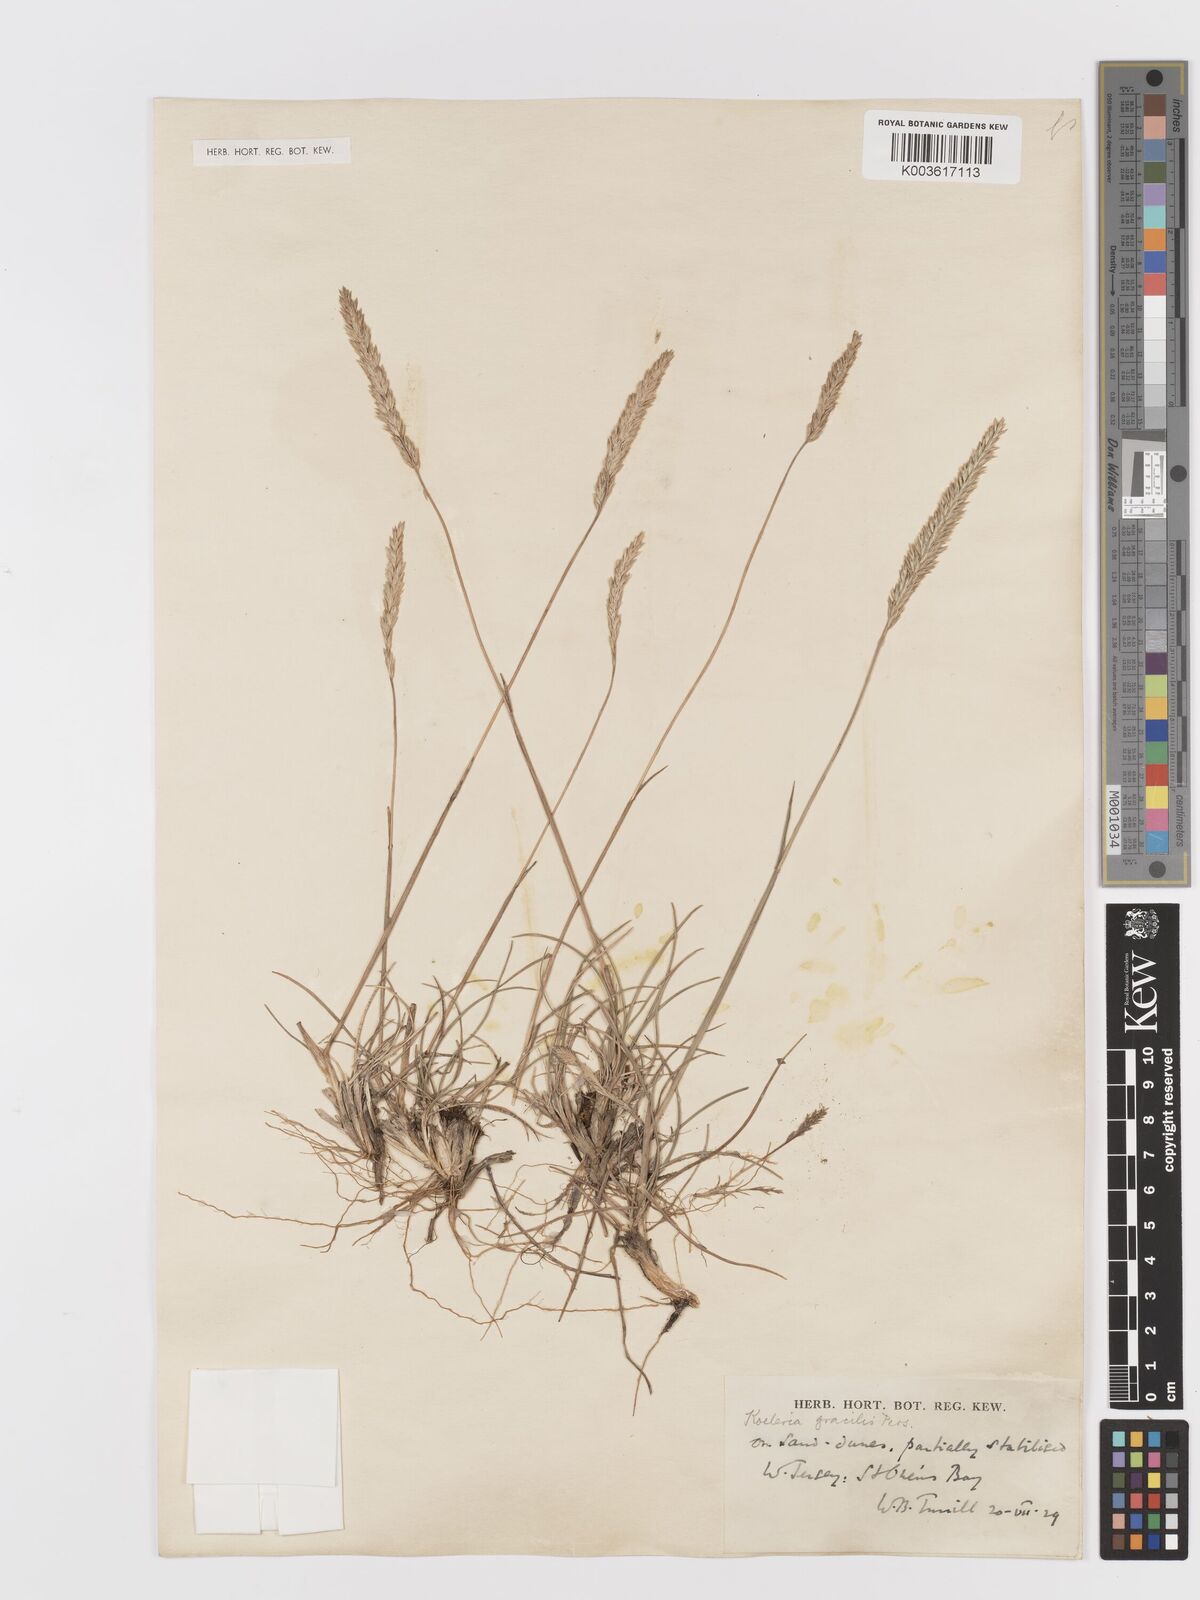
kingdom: Plantae
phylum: Tracheophyta
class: Liliopsida
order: Poales
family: Poaceae
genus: Koeleria
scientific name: Koeleria macrantha
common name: Crested hair-grass
